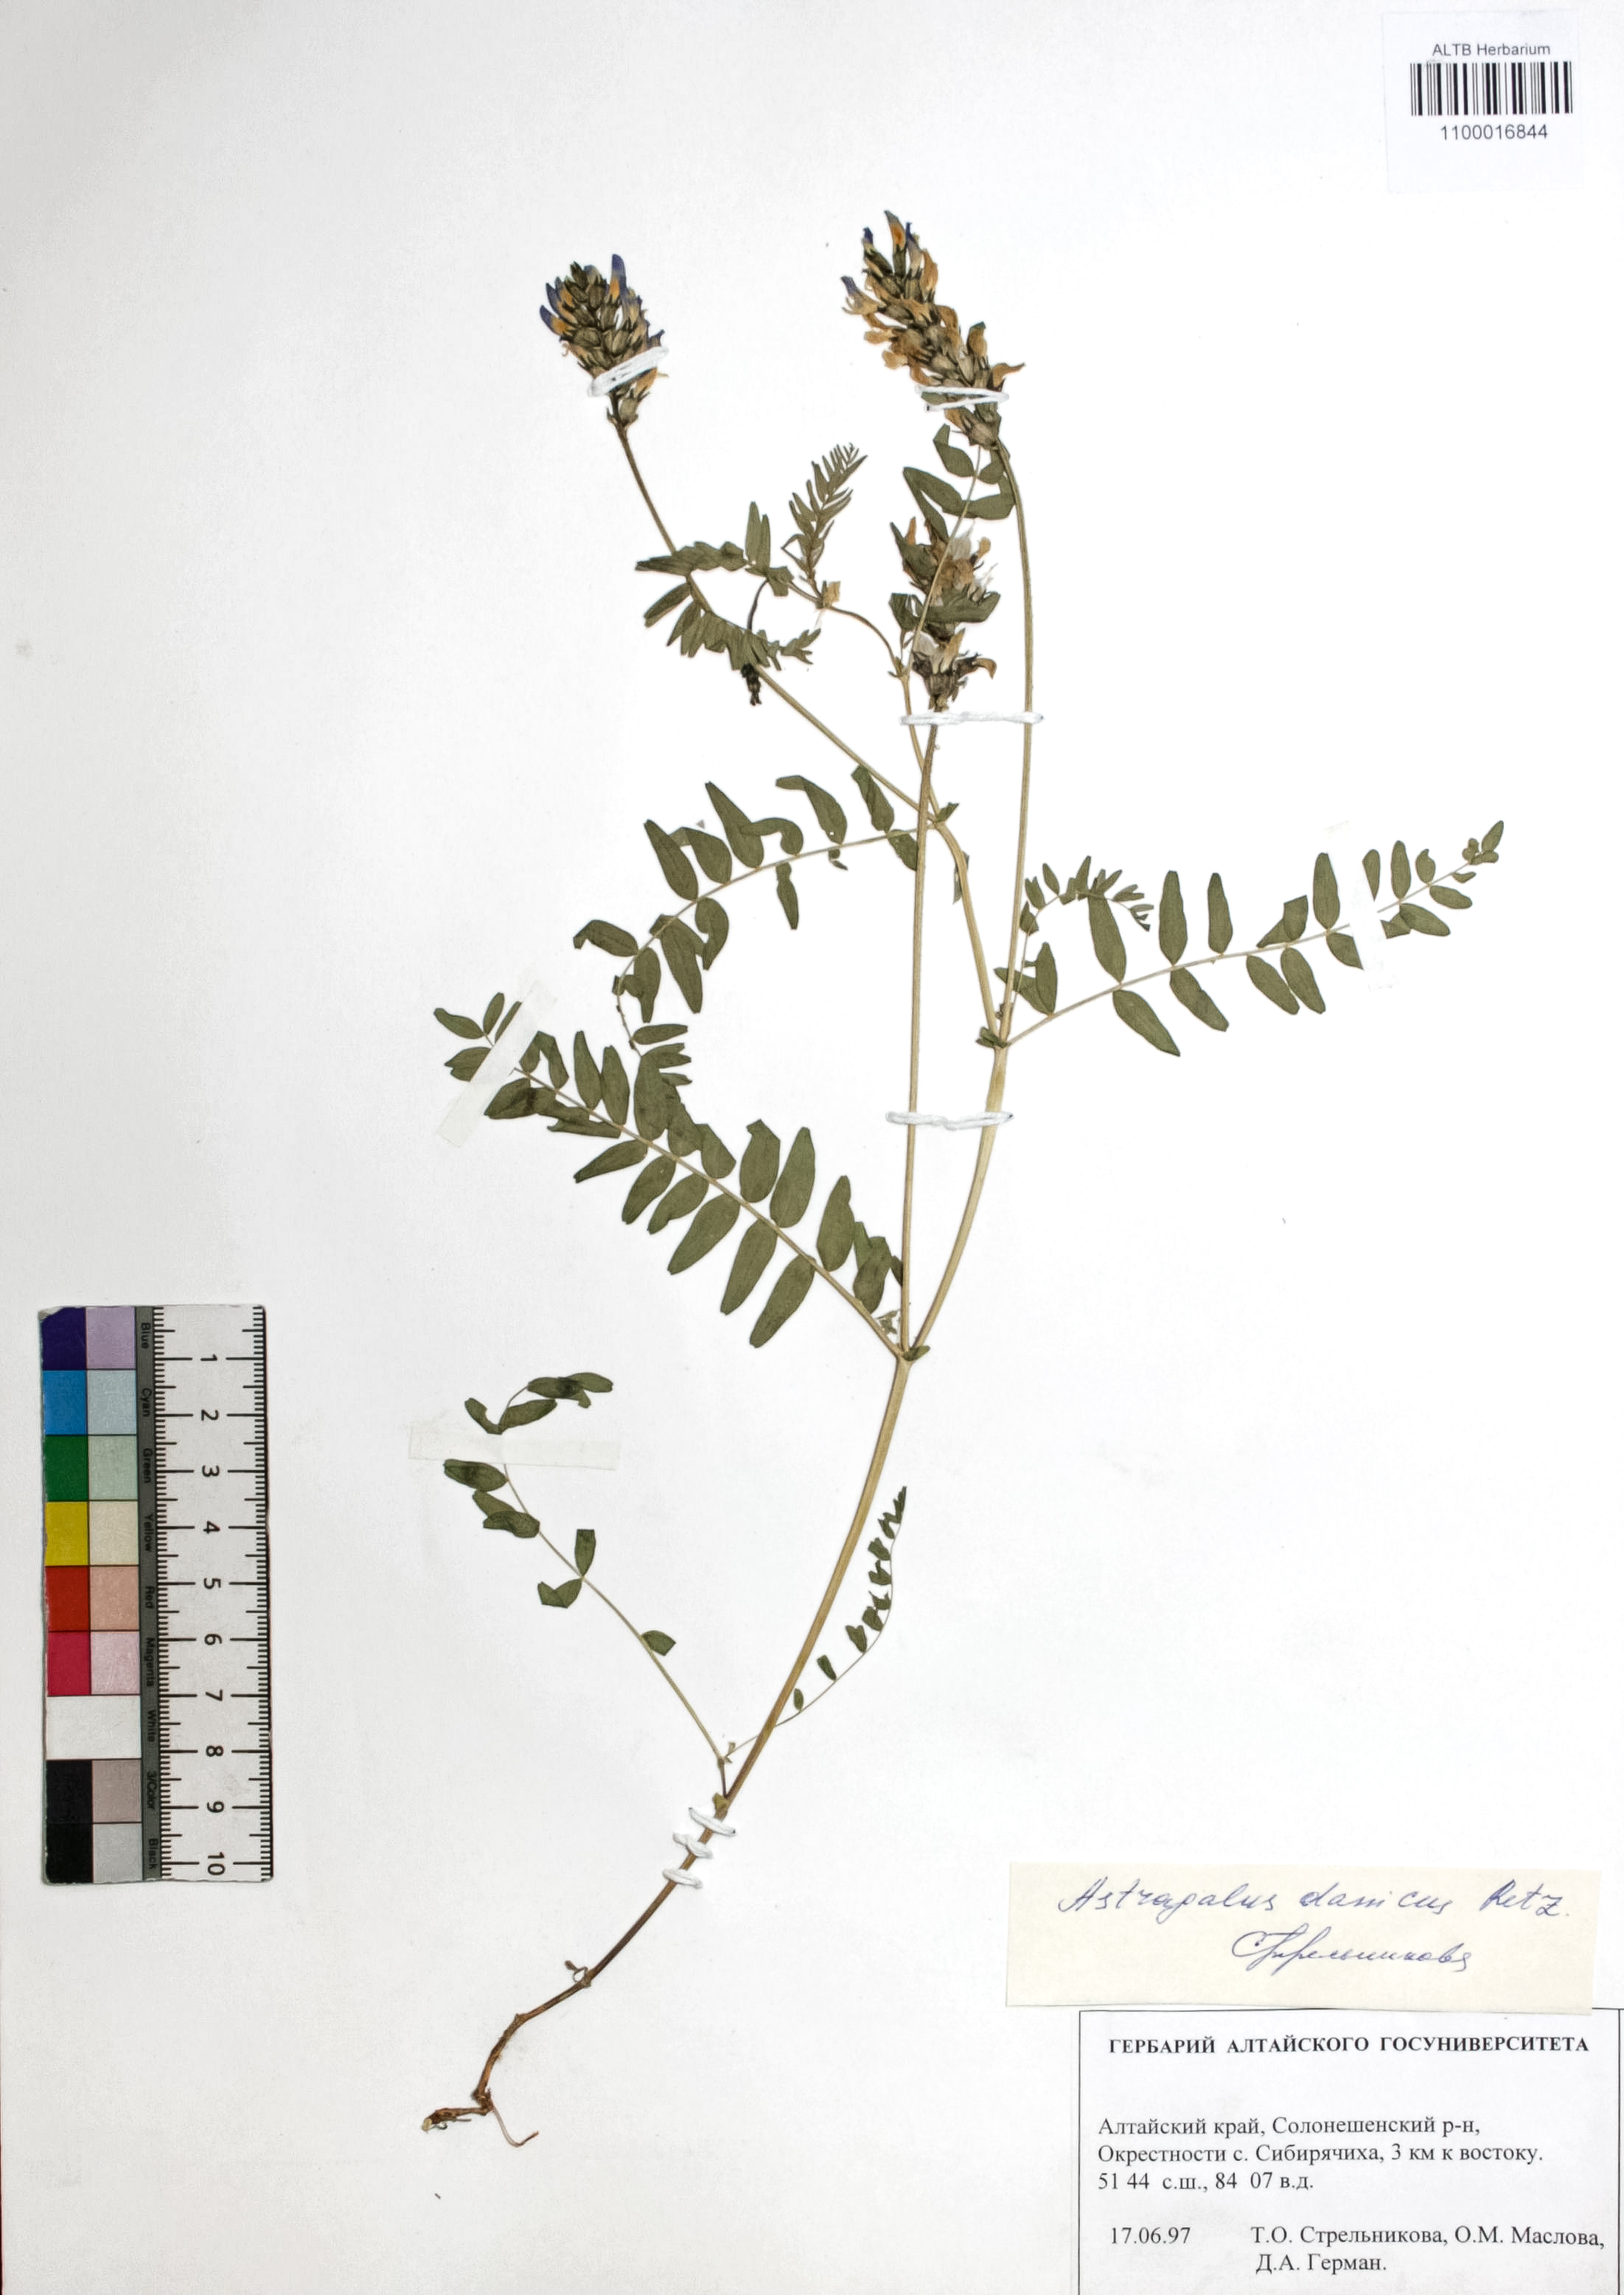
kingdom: Plantae
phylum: Tracheophyta
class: Magnoliopsida
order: Fabales
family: Fabaceae
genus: Astragalus
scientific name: Astragalus danicus
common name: Purple milk-vetch
